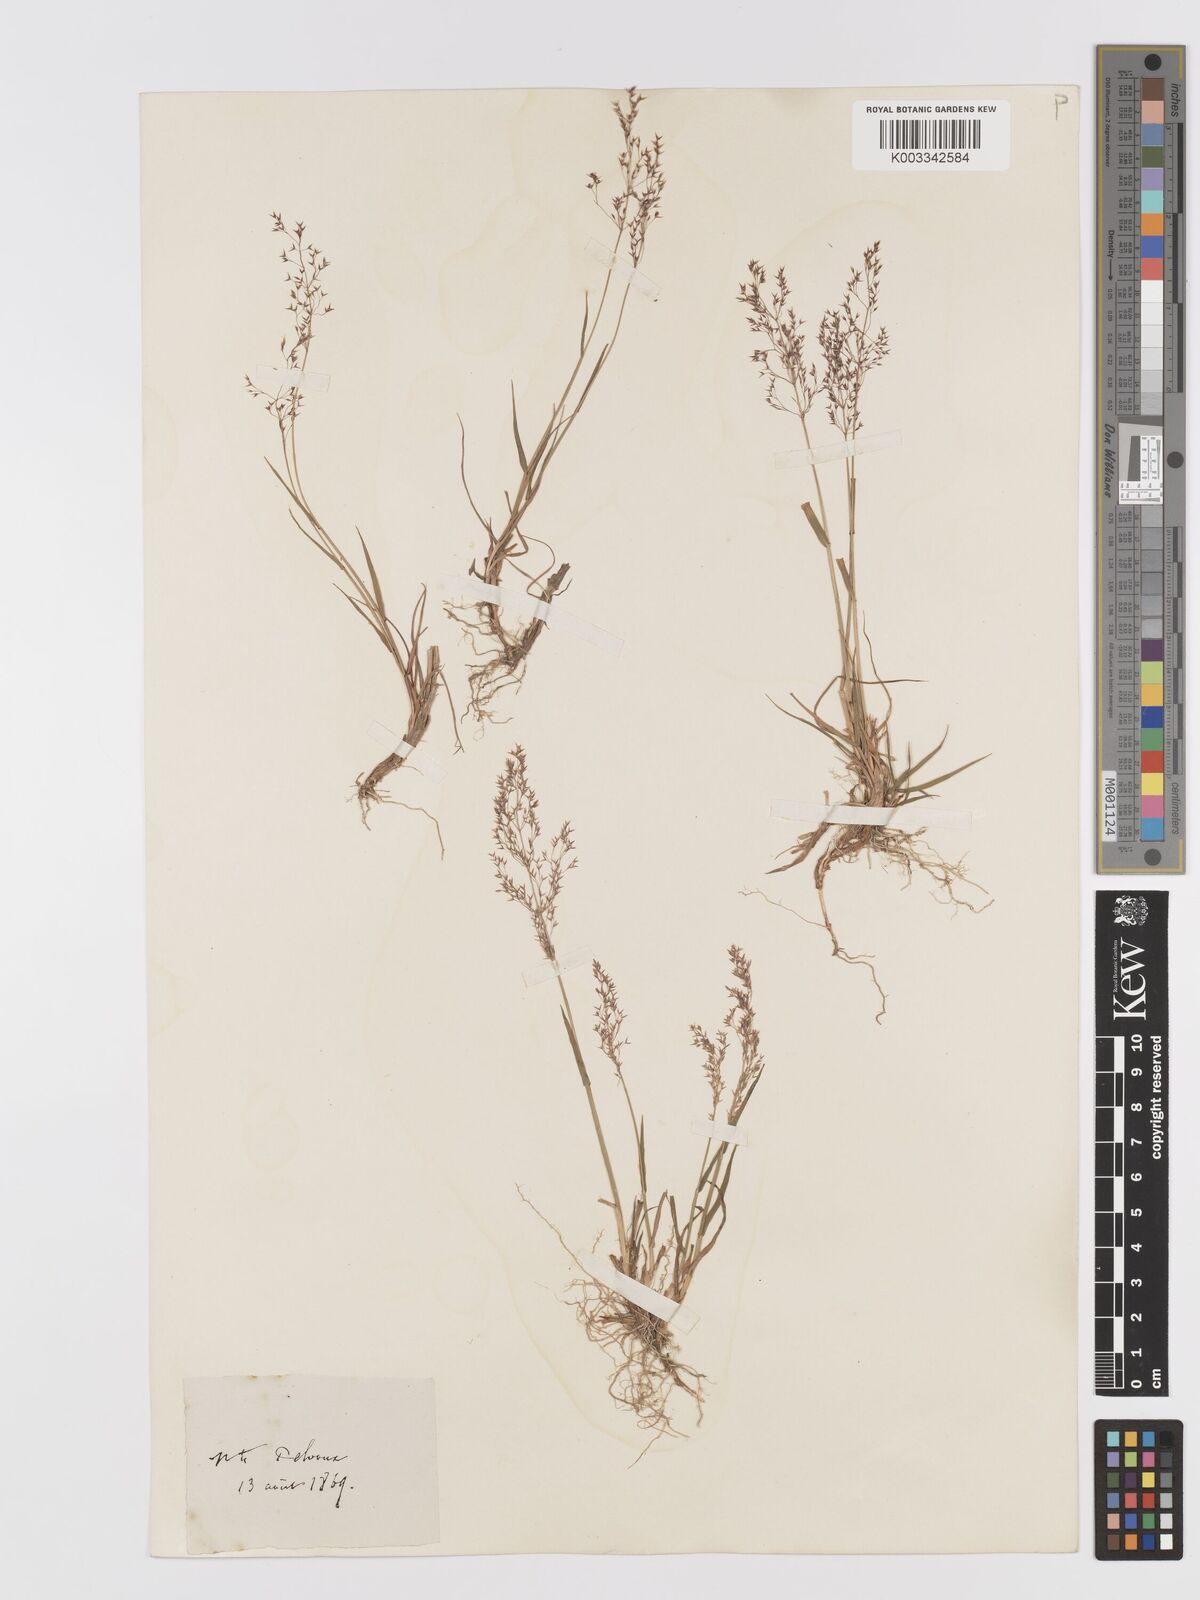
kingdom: Plantae
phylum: Tracheophyta
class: Liliopsida
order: Poales
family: Poaceae
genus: Agrostis
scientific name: Agrostis
